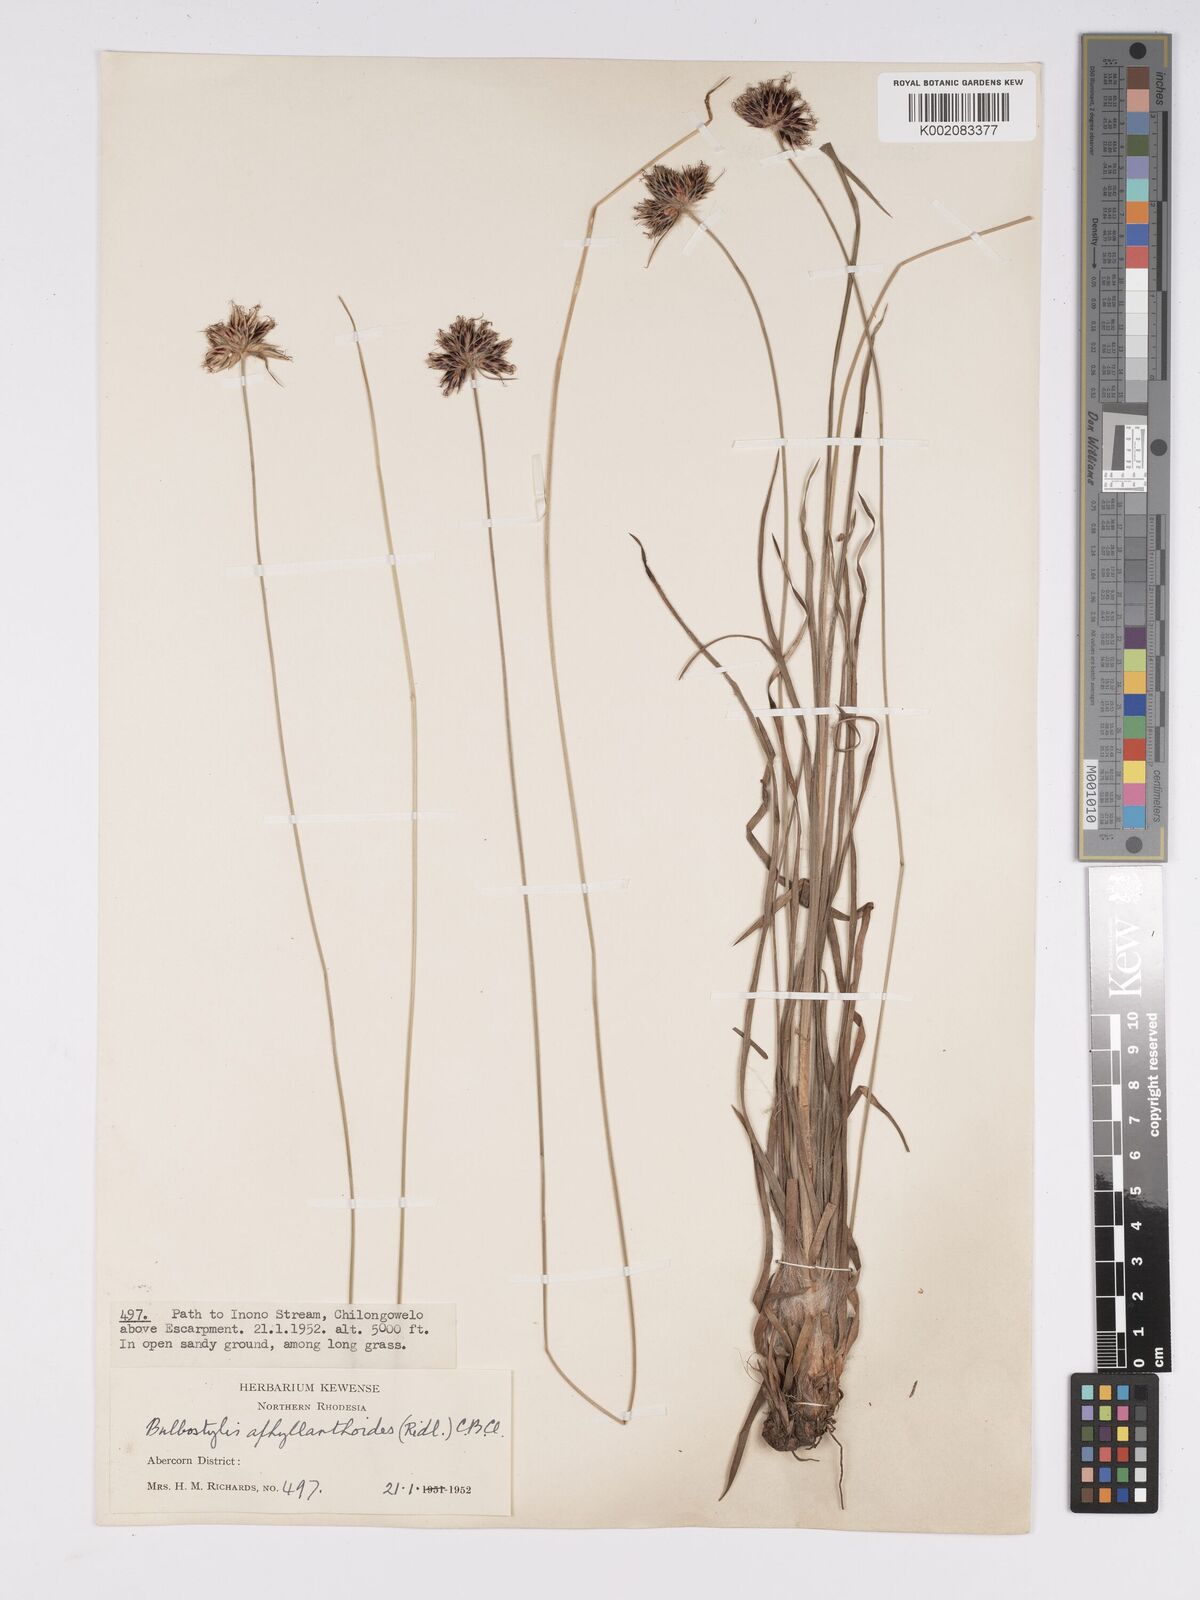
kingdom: Plantae
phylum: Tracheophyta
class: Liliopsida
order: Poales
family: Cyperaceae
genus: Bulbostylis
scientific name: Bulbostylis pilosa
